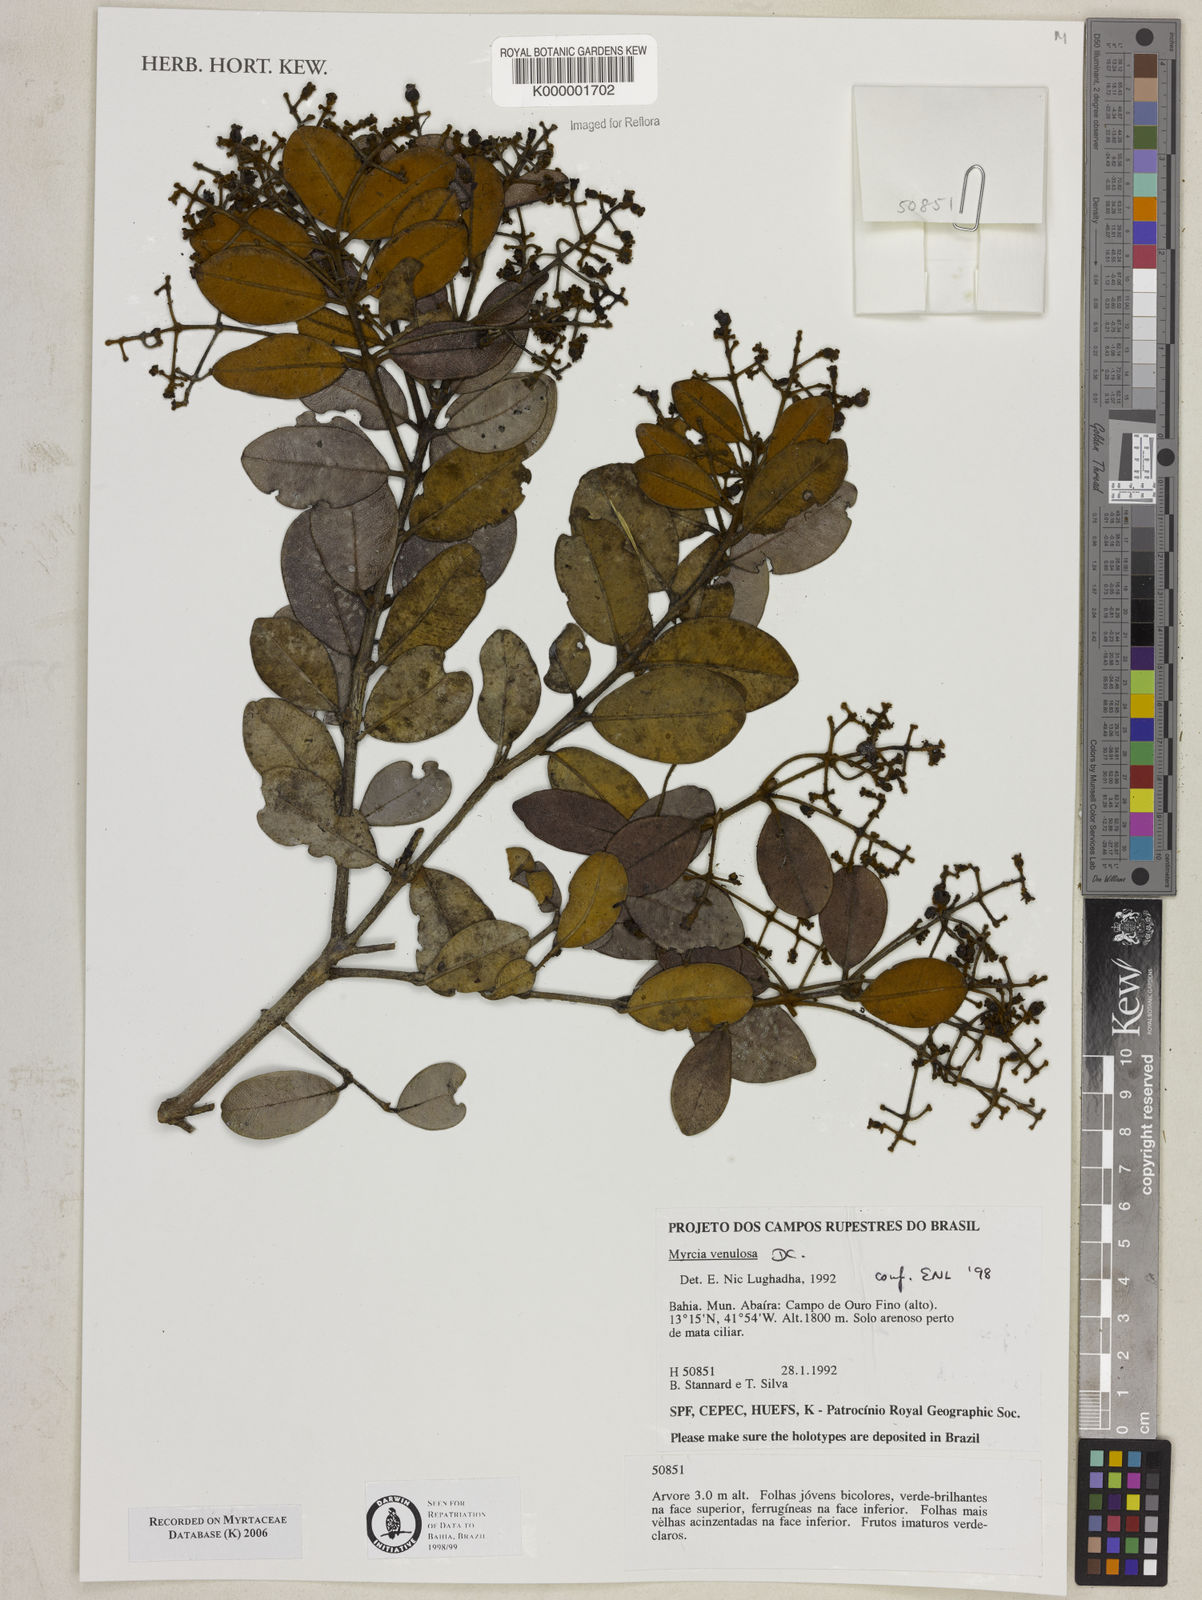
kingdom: Plantae
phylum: Tracheophyta
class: Magnoliopsida
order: Myrtales
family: Myrtaceae
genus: Myrcia
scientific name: Myrcia venulosa
